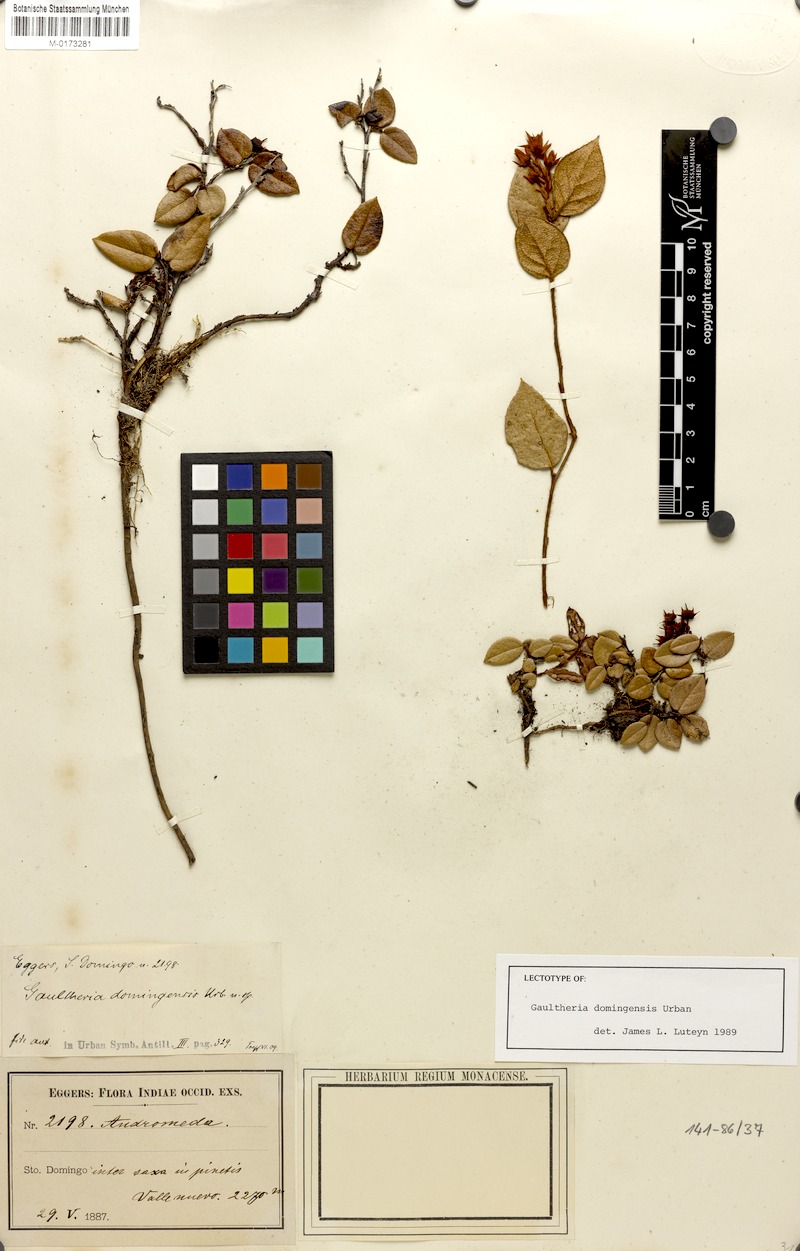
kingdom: Plantae
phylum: Tracheophyta
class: Magnoliopsida
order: Ericales
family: Ericaceae
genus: Gaultheria
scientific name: Gaultheria domingensis
